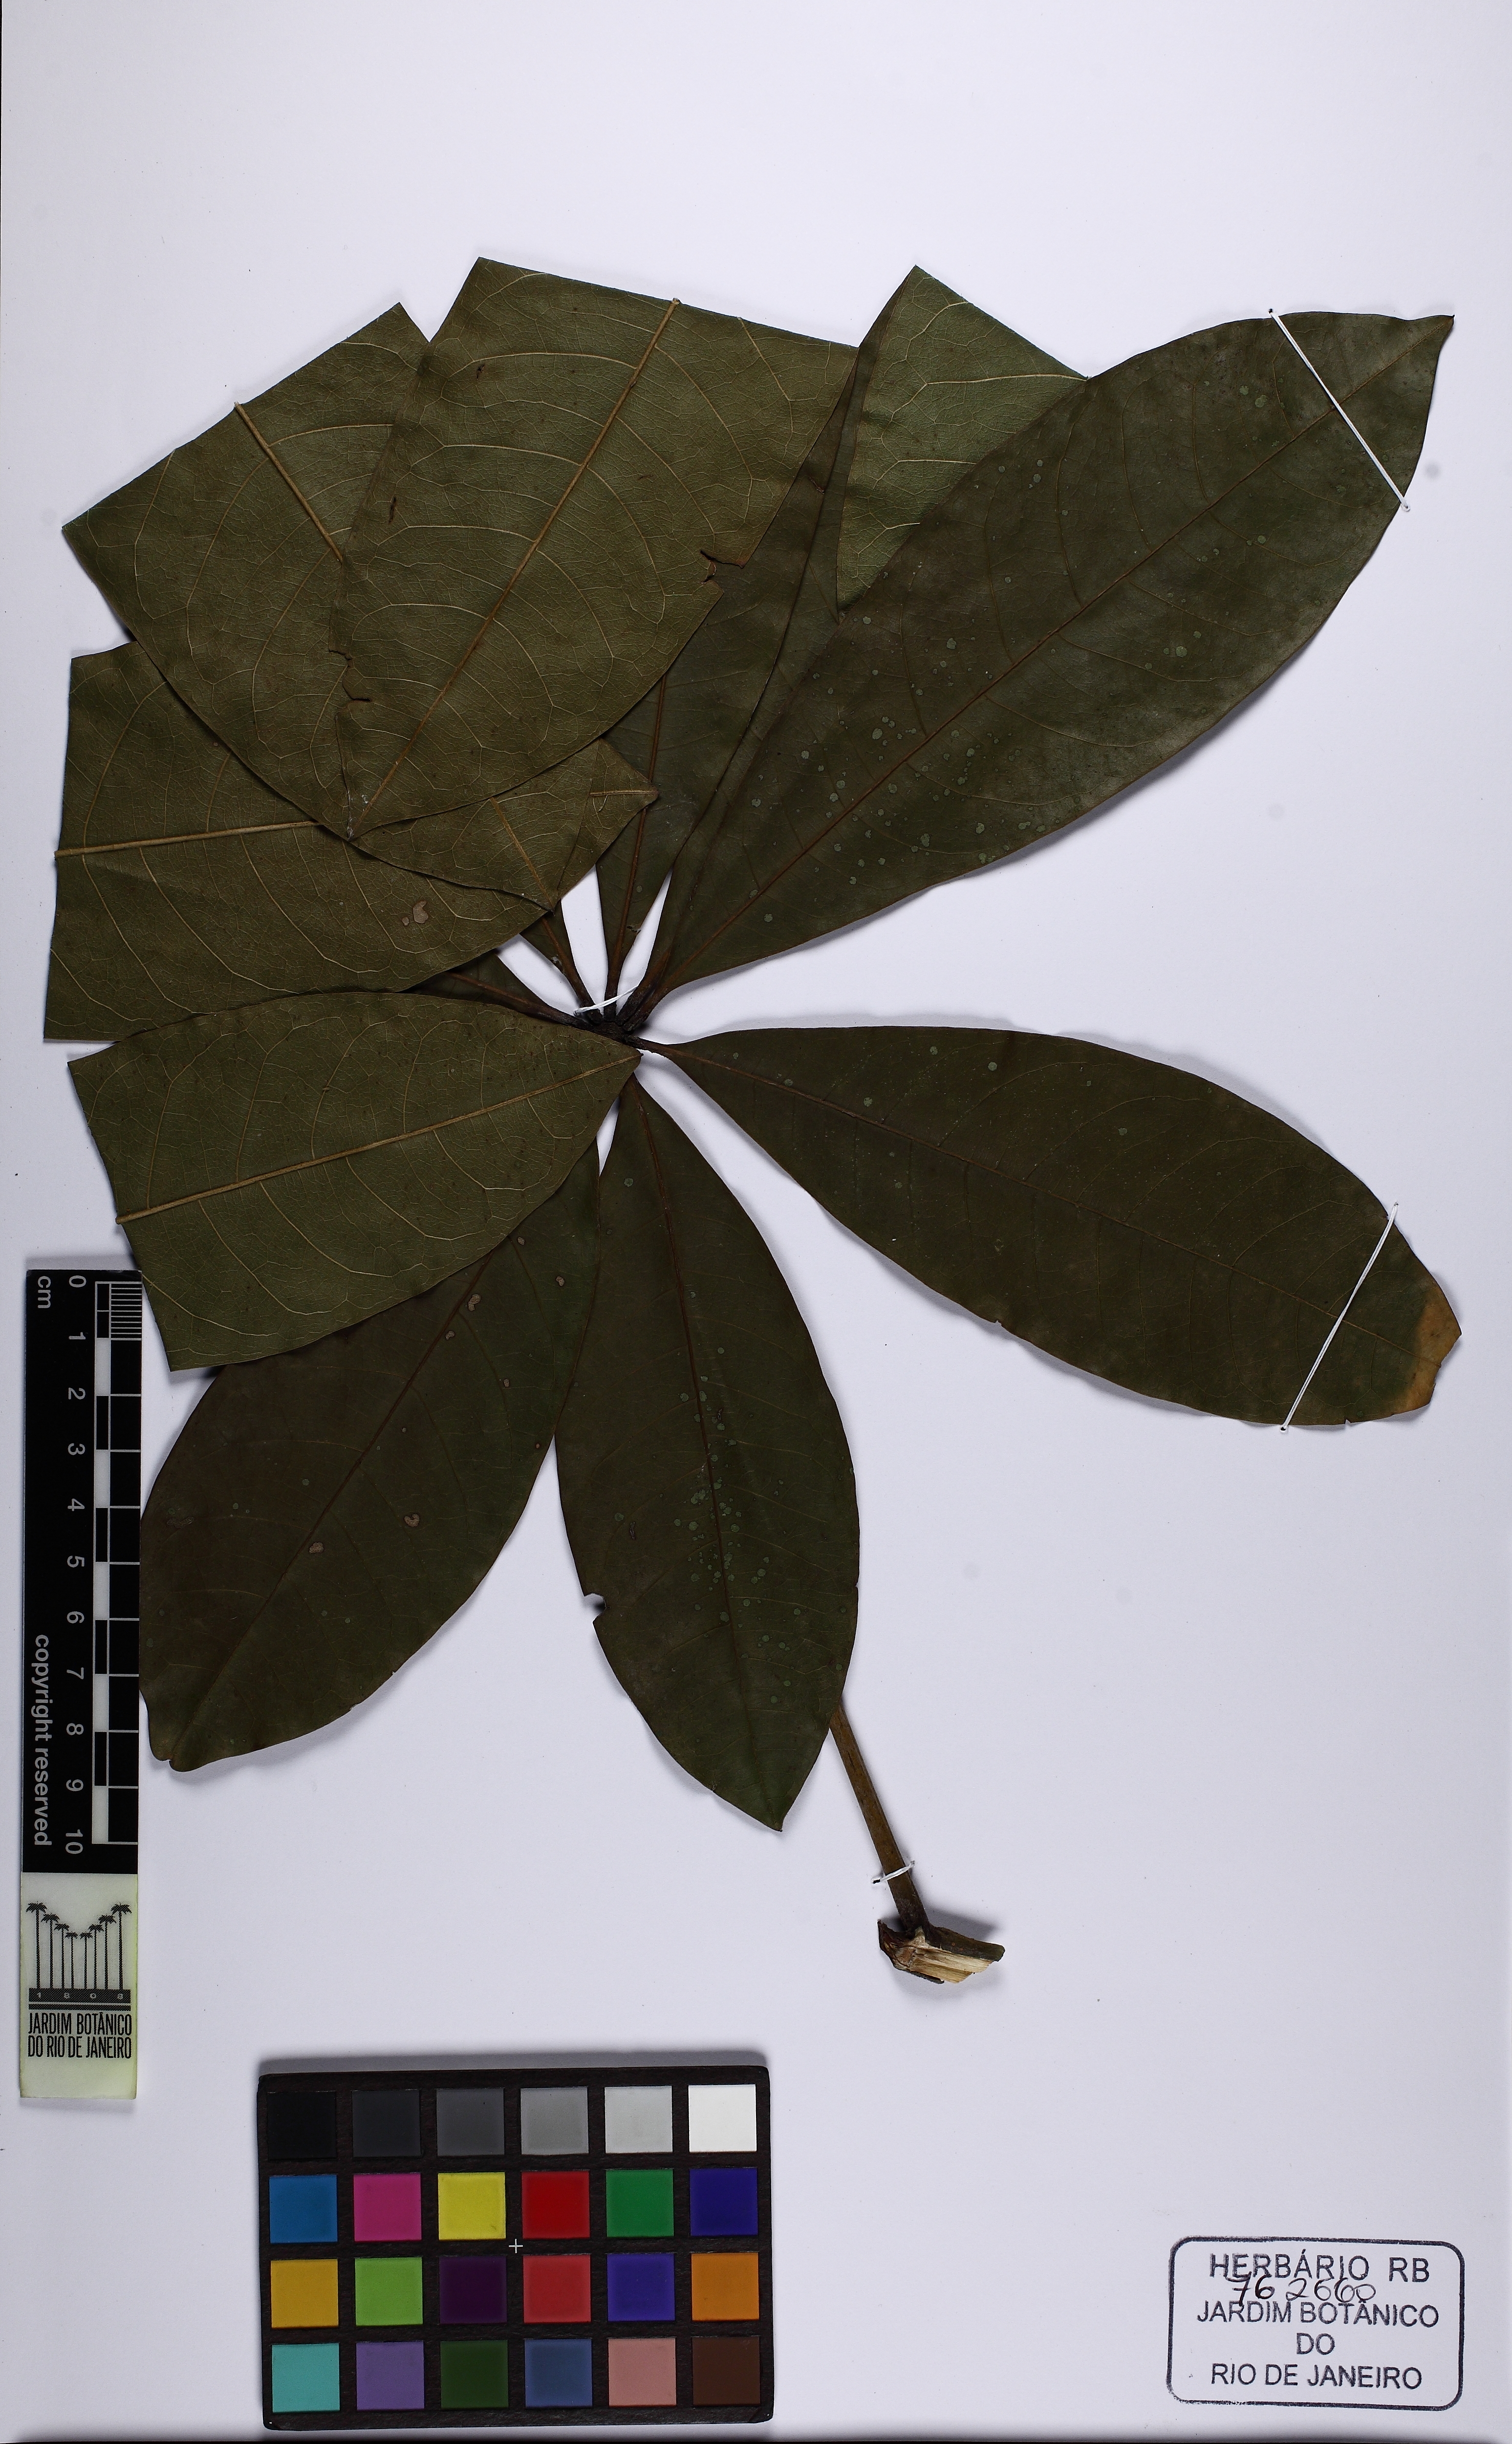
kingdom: Plantae
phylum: Tracheophyta
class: Magnoliopsida
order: Malvales
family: Malvaceae
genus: Pachira
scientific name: Pachira insignis
